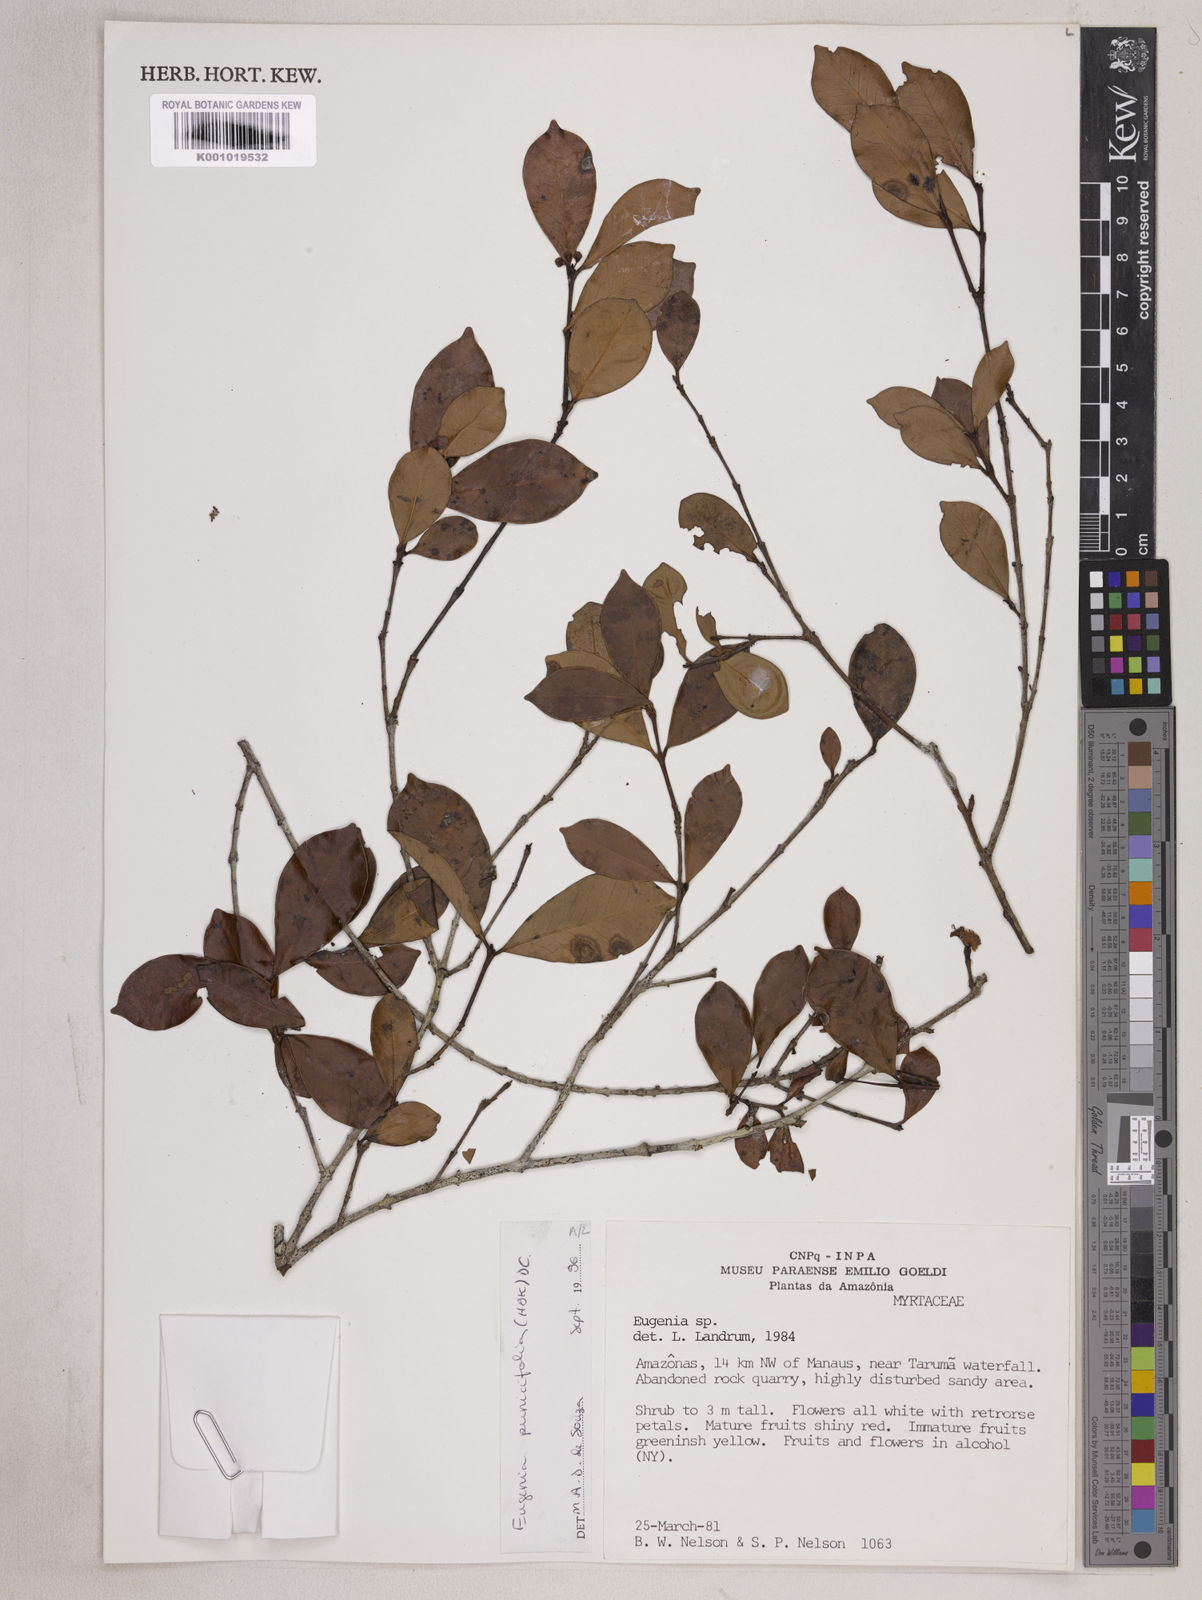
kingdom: Plantae
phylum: Tracheophyta
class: Magnoliopsida
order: Myrtales
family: Myrtaceae
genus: Eugenia
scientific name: Eugenia punicifolia
